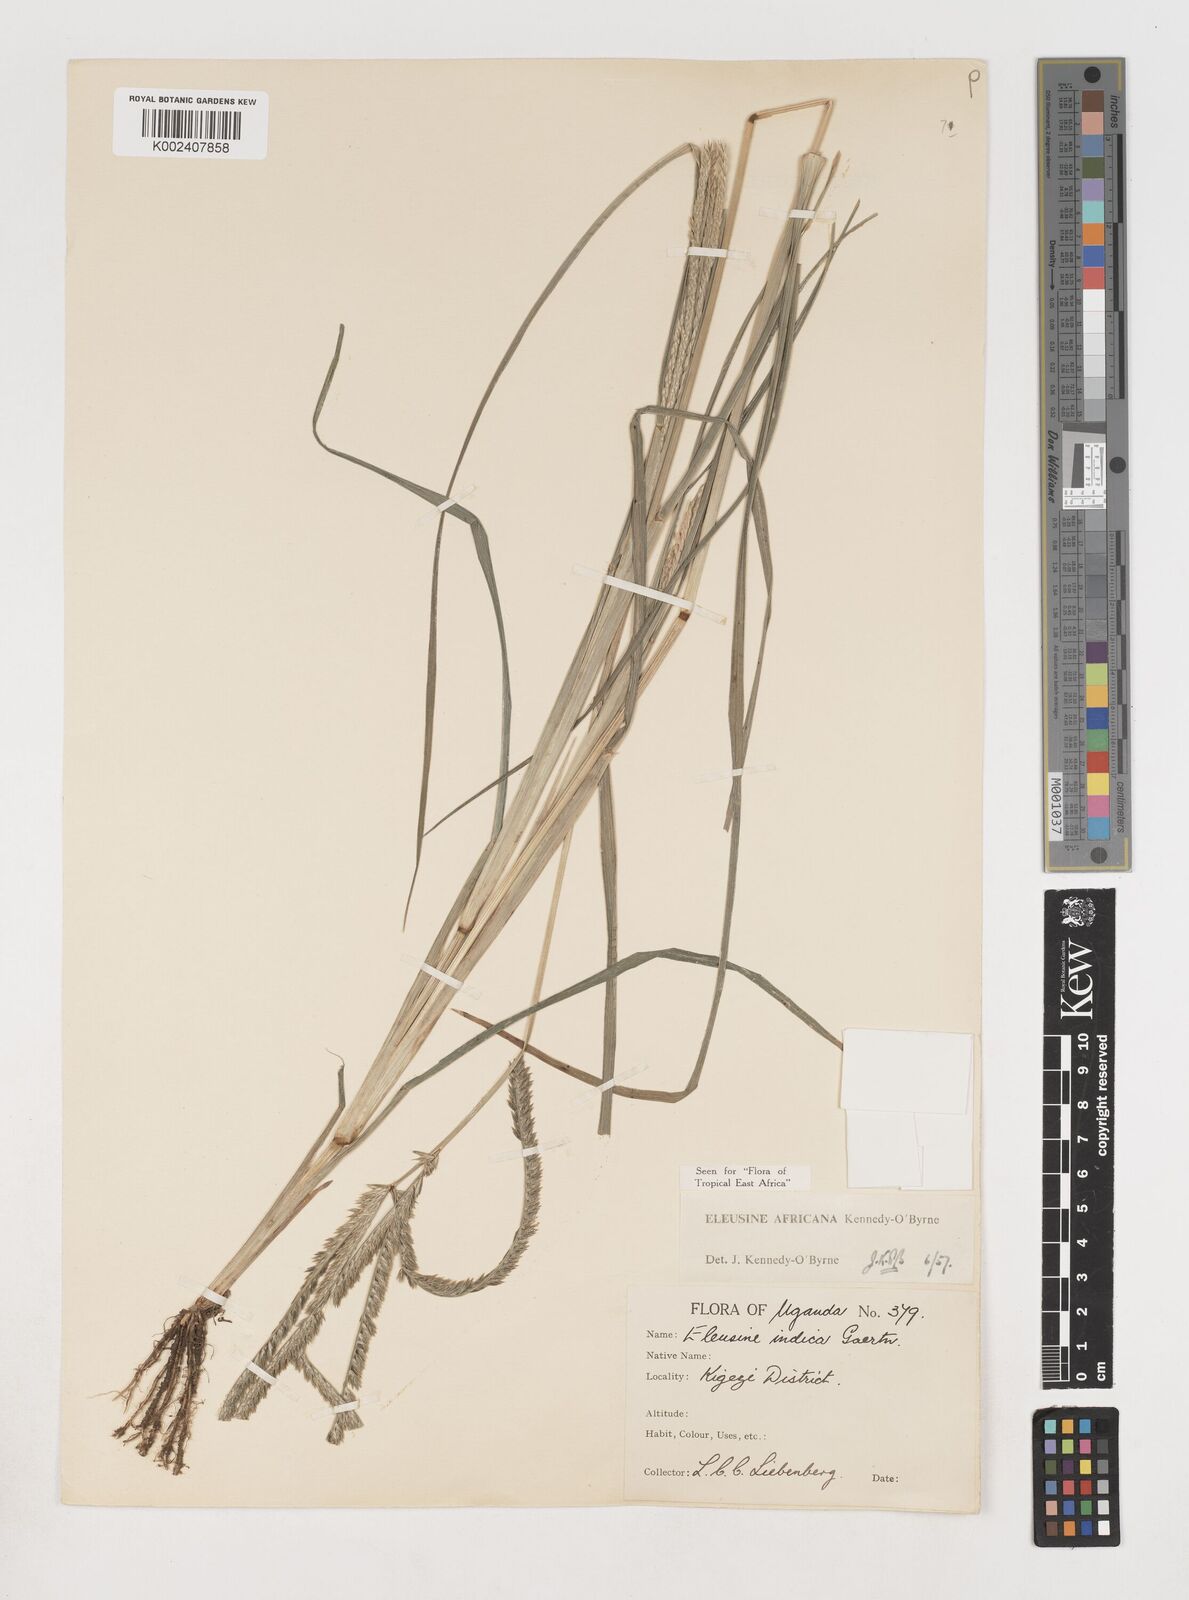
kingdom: Plantae
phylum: Tracheophyta
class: Liliopsida
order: Poales
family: Poaceae
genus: Eleusine
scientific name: Eleusine africana
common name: Wild african finger millet
